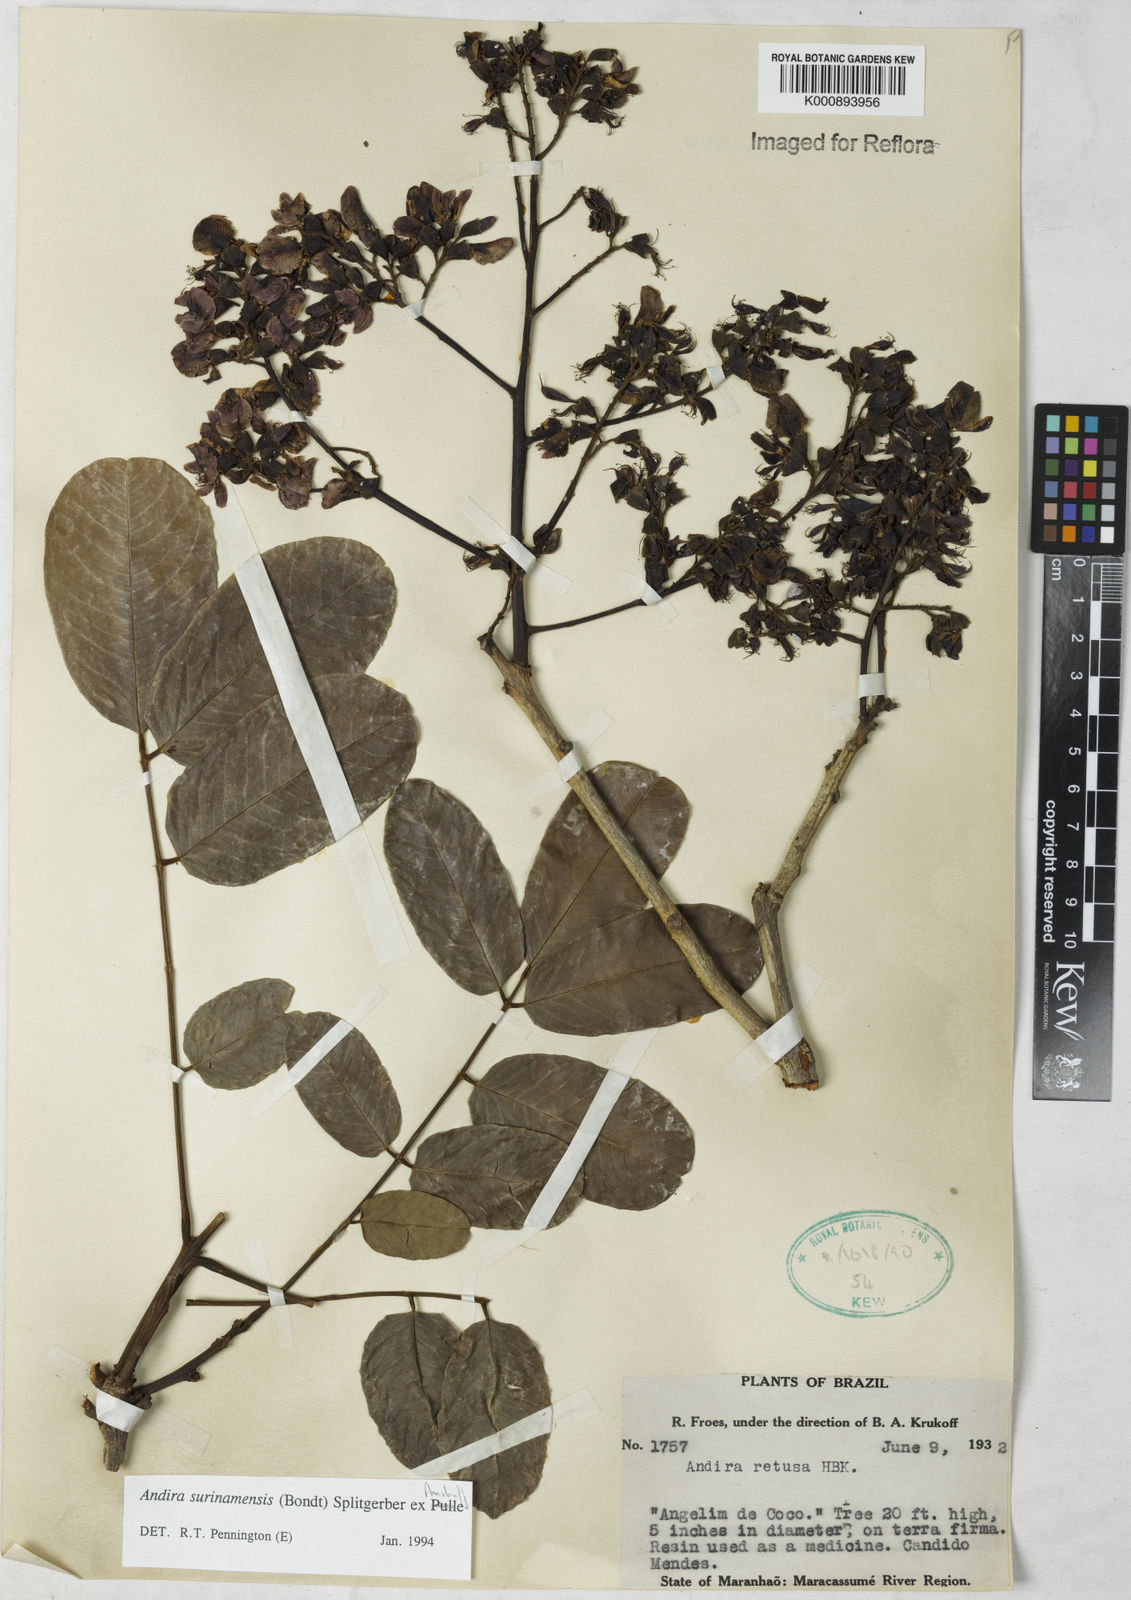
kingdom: Plantae
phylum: Tracheophyta
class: Magnoliopsida
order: Fabales
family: Fabaceae
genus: Andira
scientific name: Andira
